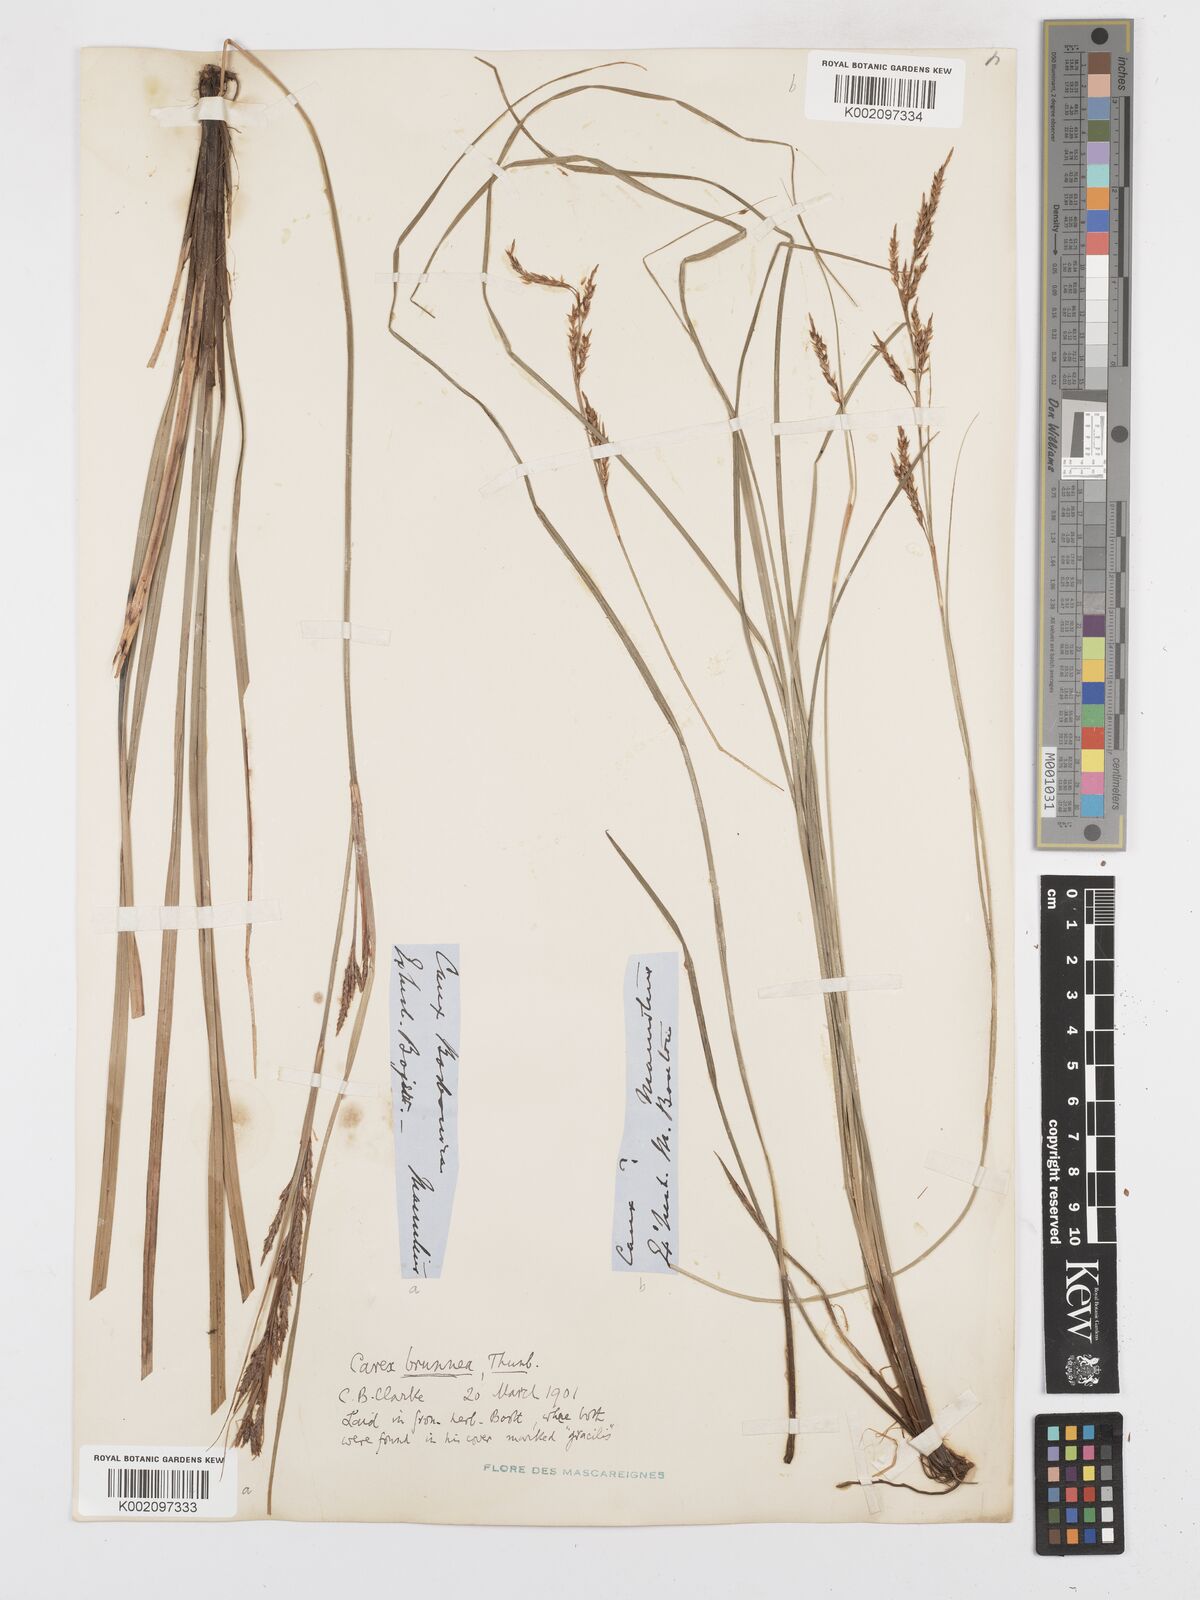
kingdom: Plantae
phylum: Tracheophyta
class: Liliopsida
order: Poales
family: Cyperaceae
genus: Carex
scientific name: Carex brunnea
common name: Greater brown sedge
